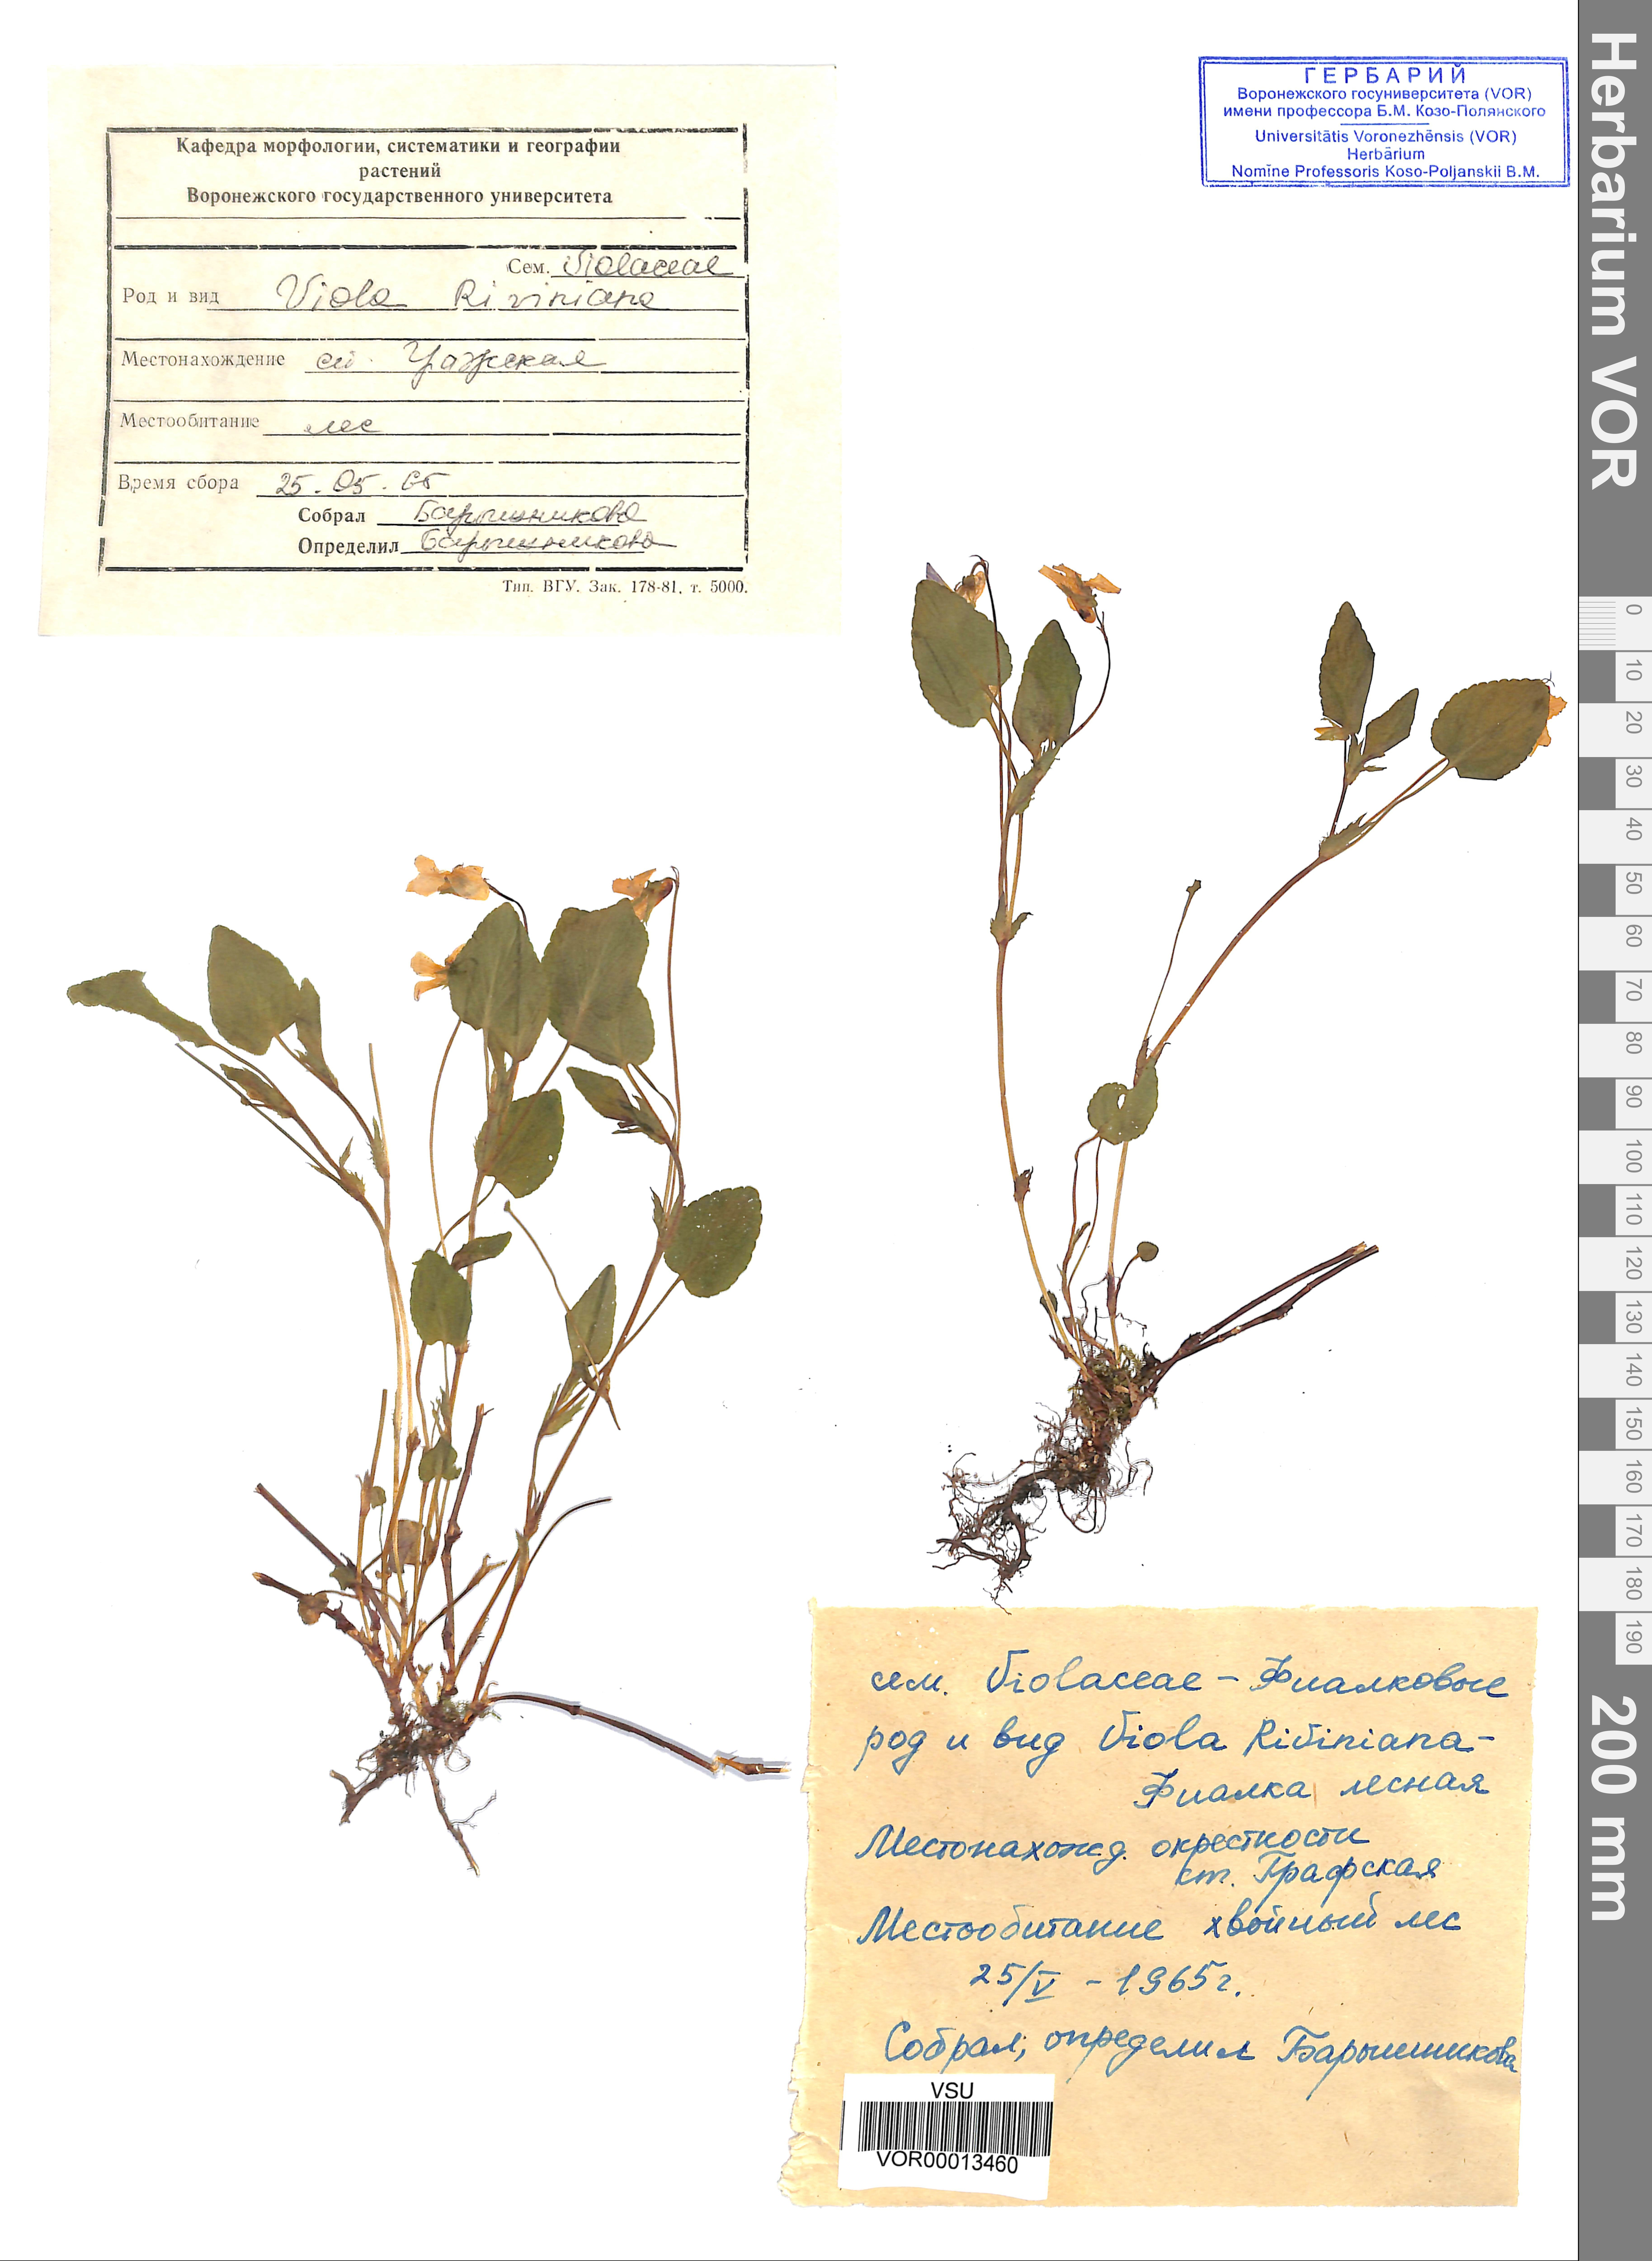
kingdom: Plantae
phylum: Tracheophyta
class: Magnoliopsida
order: Malpighiales
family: Violaceae
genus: Viola
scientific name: Viola riviniana
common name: Common dog-violet
